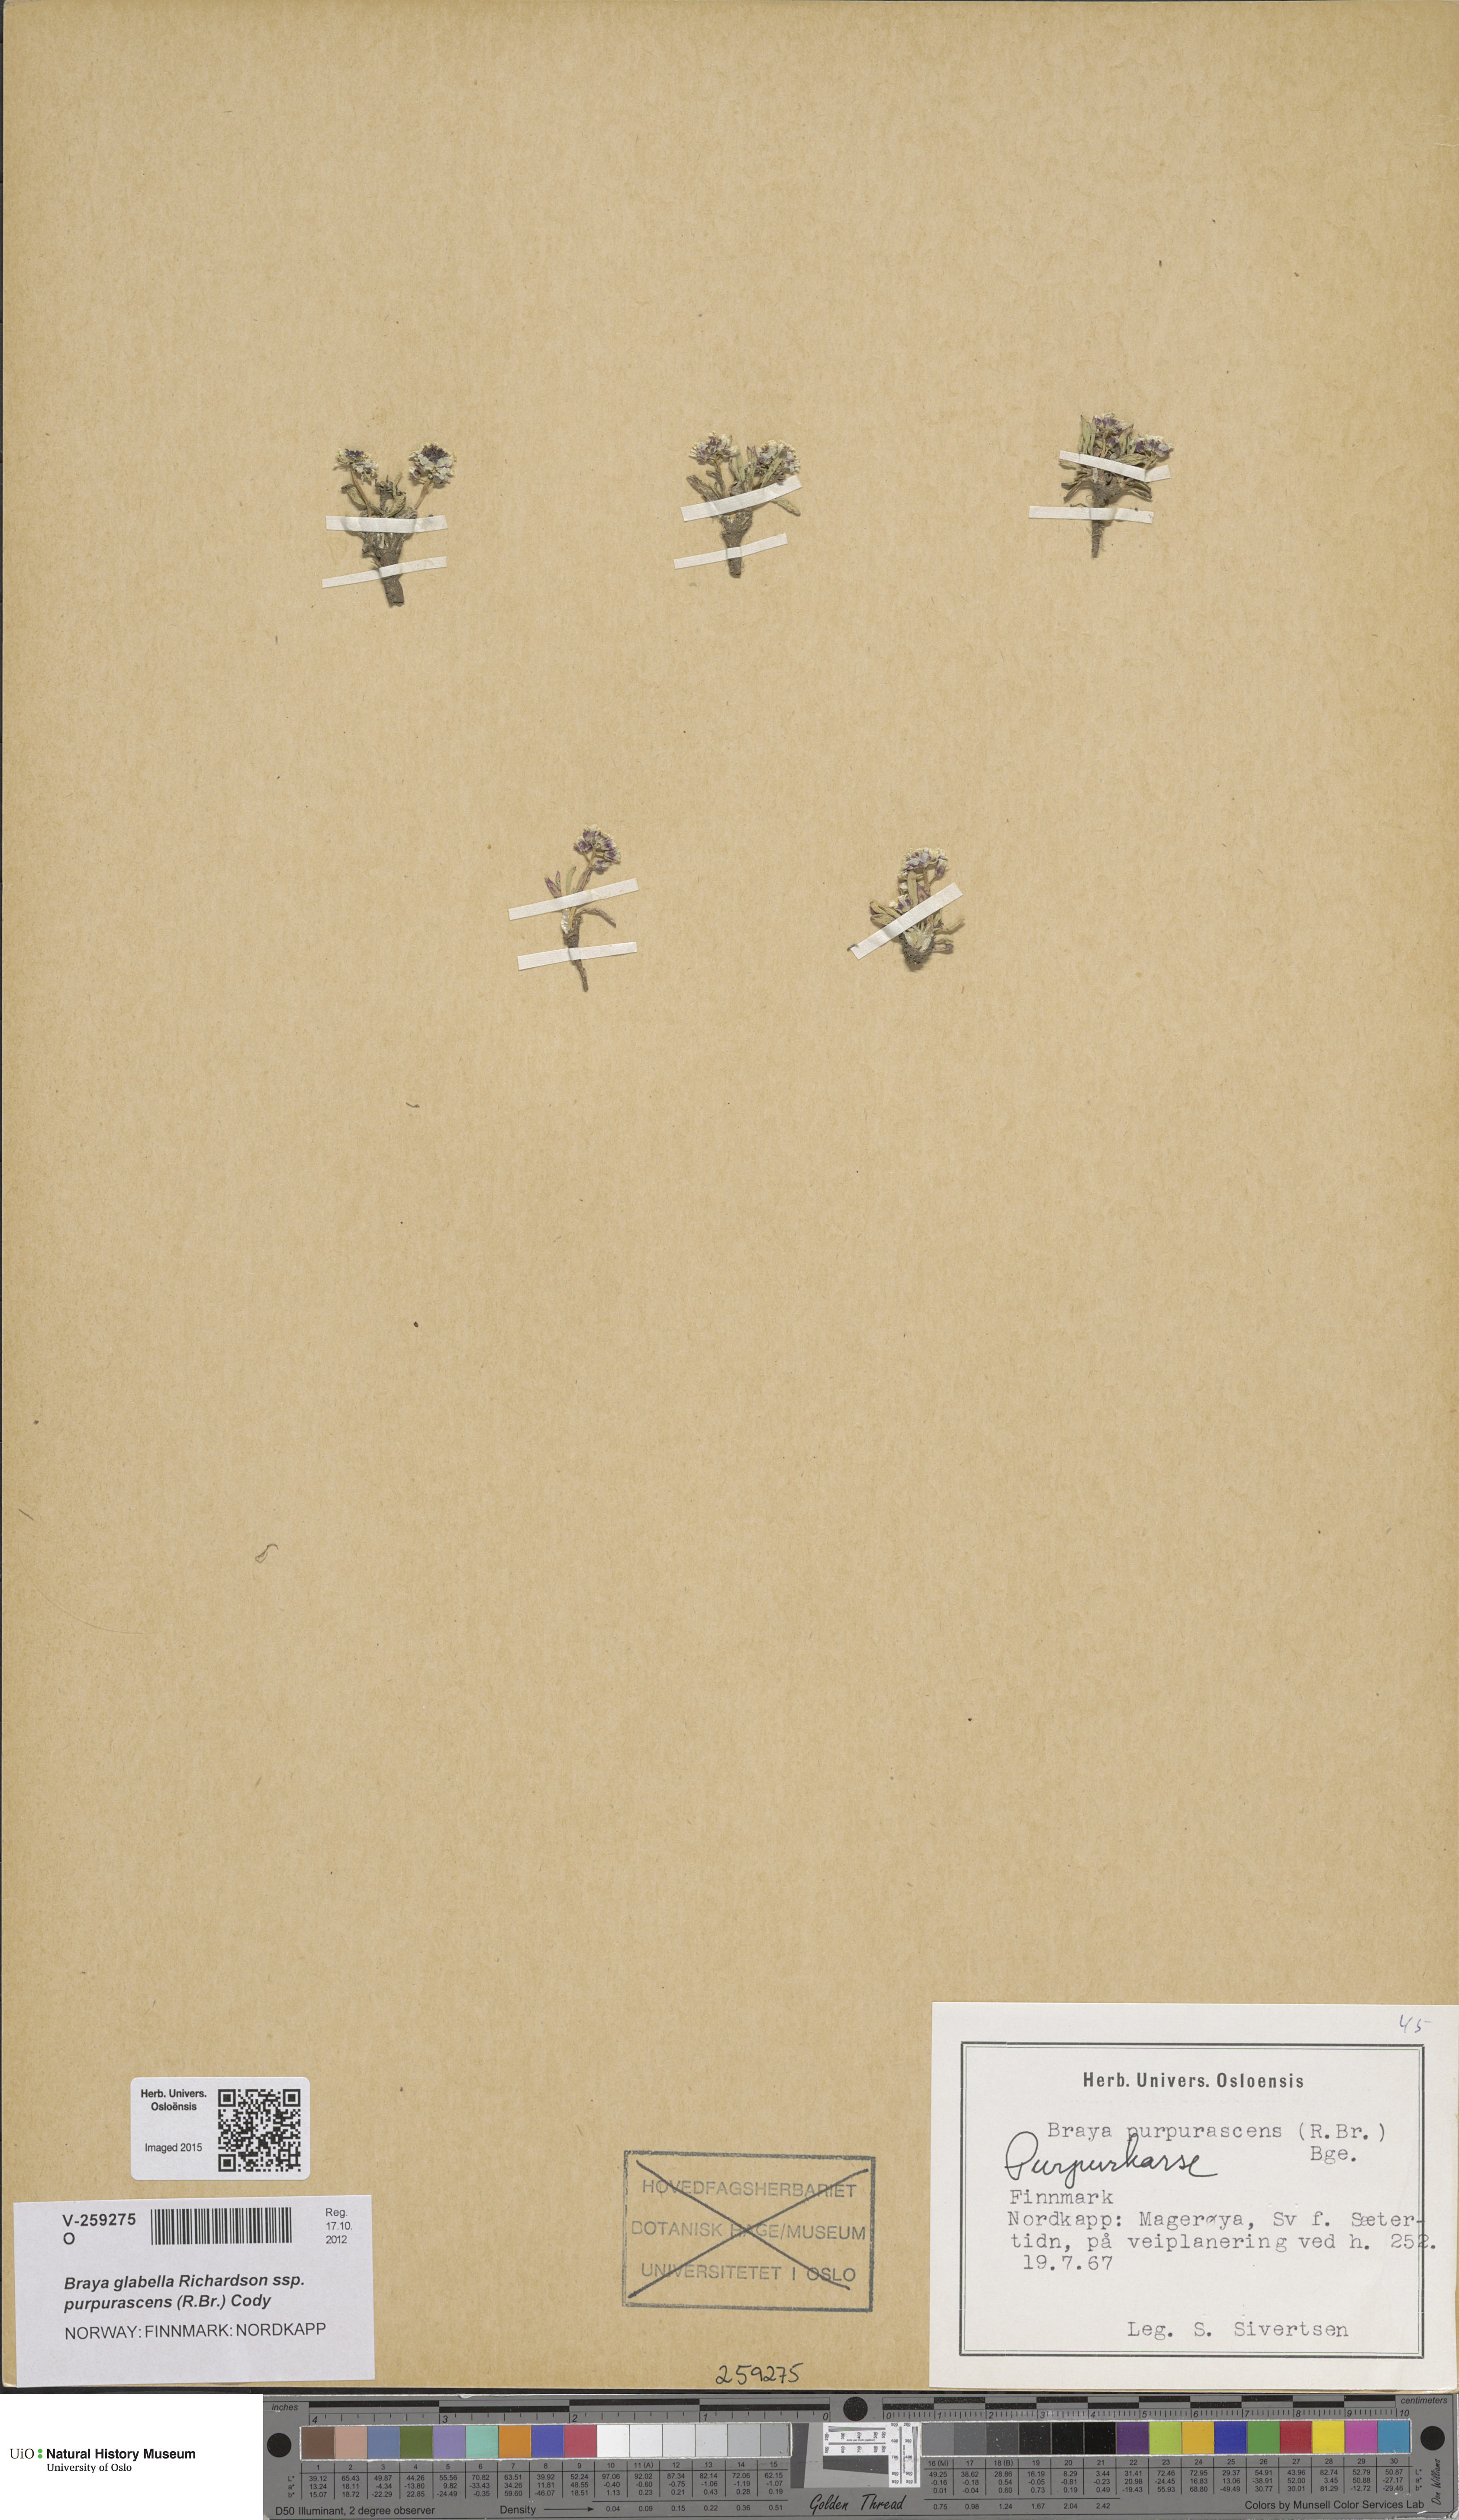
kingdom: Plantae
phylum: Tracheophyta
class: Magnoliopsida
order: Brassicales
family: Brassicaceae
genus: Braya
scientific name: Braya purpurascens
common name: Alpine braya
